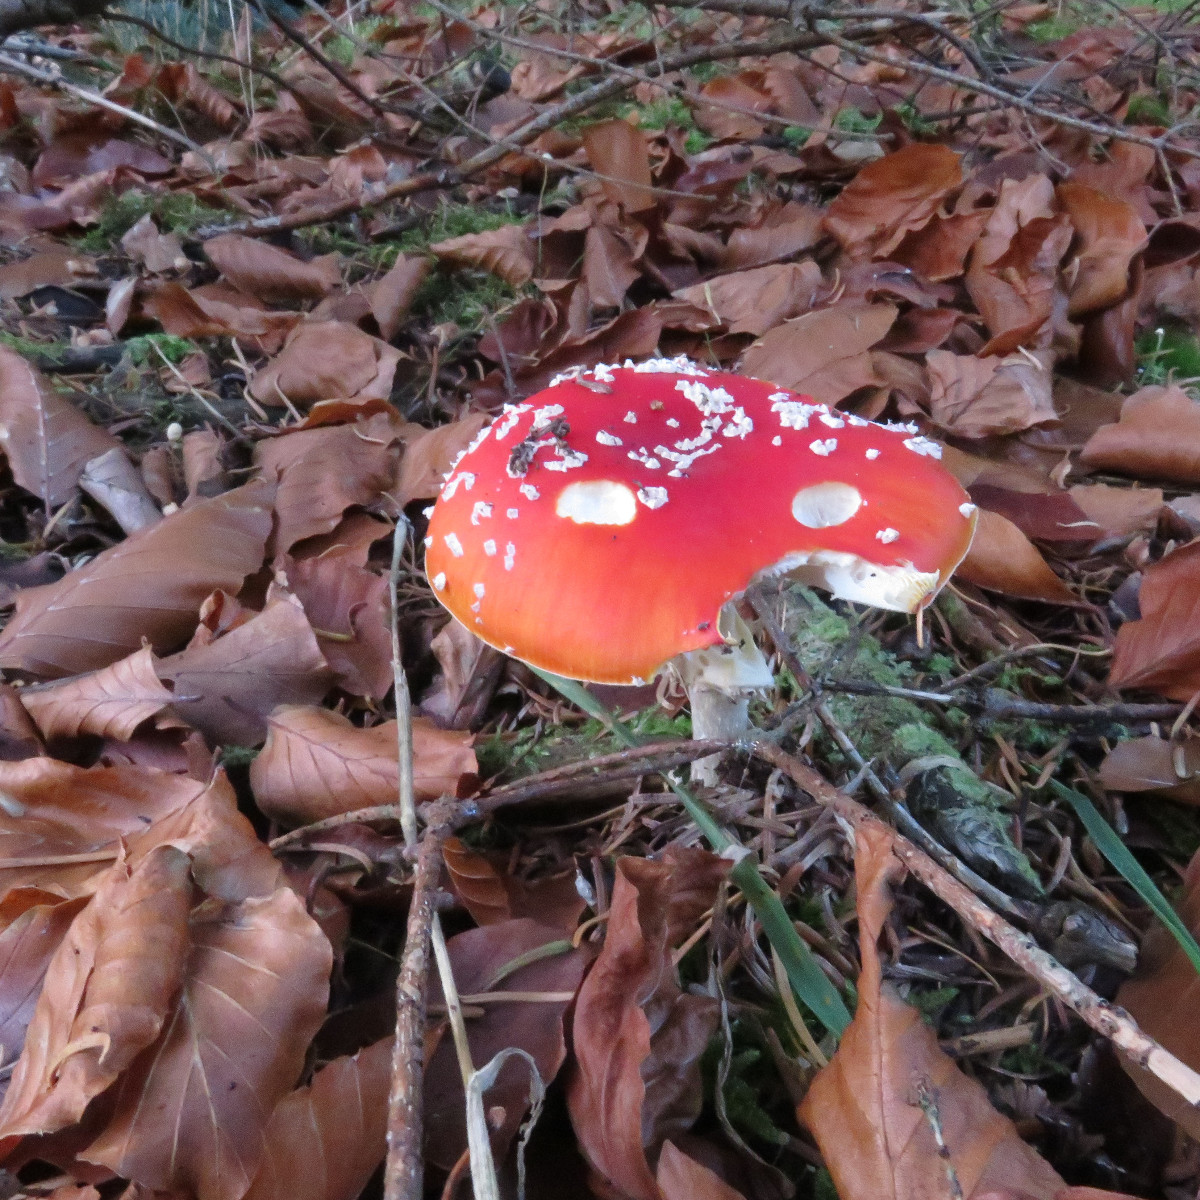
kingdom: Fungi
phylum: Basidiomycota
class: Agaricomycetes
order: Agaricales
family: Amanitaceae
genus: Amanita
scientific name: Amanita muscaria
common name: rød fluesvamp
